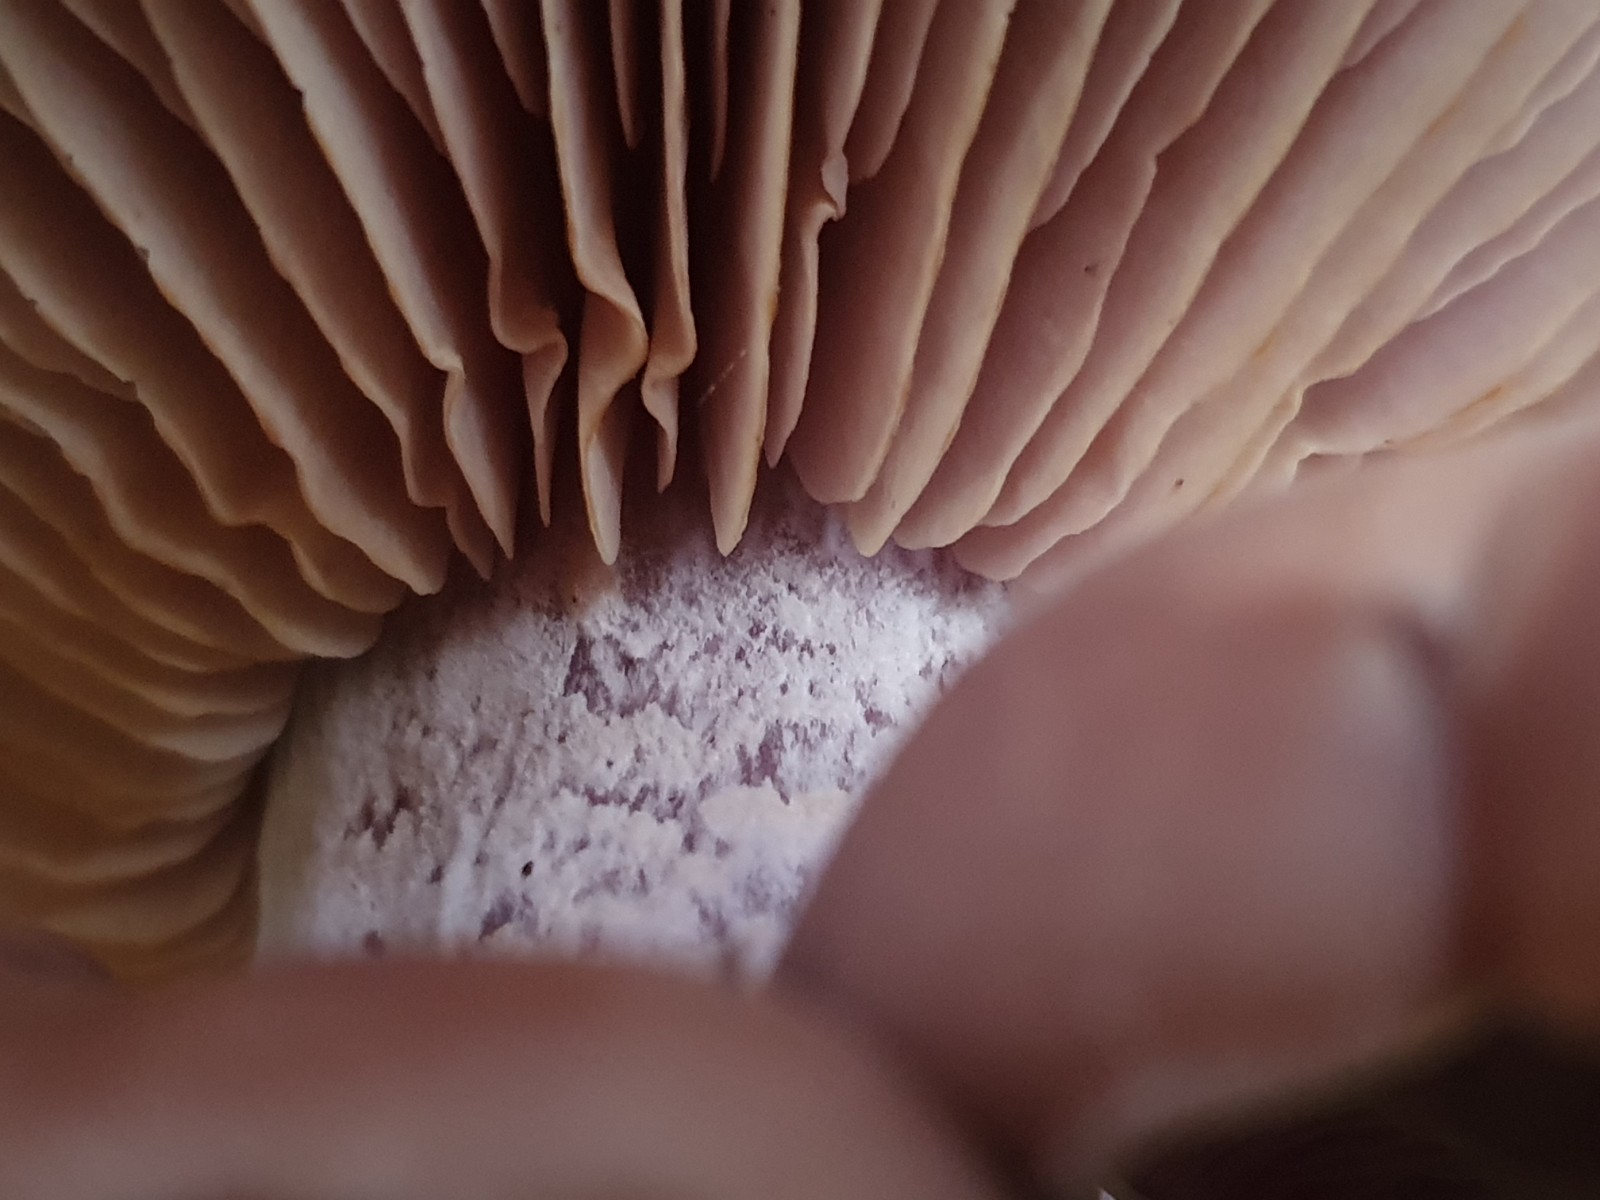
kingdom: Fungi
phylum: Basidiomycota
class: Agaricomycetes
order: Agaricales
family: Tricholomataceae
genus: Lepista
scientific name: Lepista nuda
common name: violet hekseringshat
